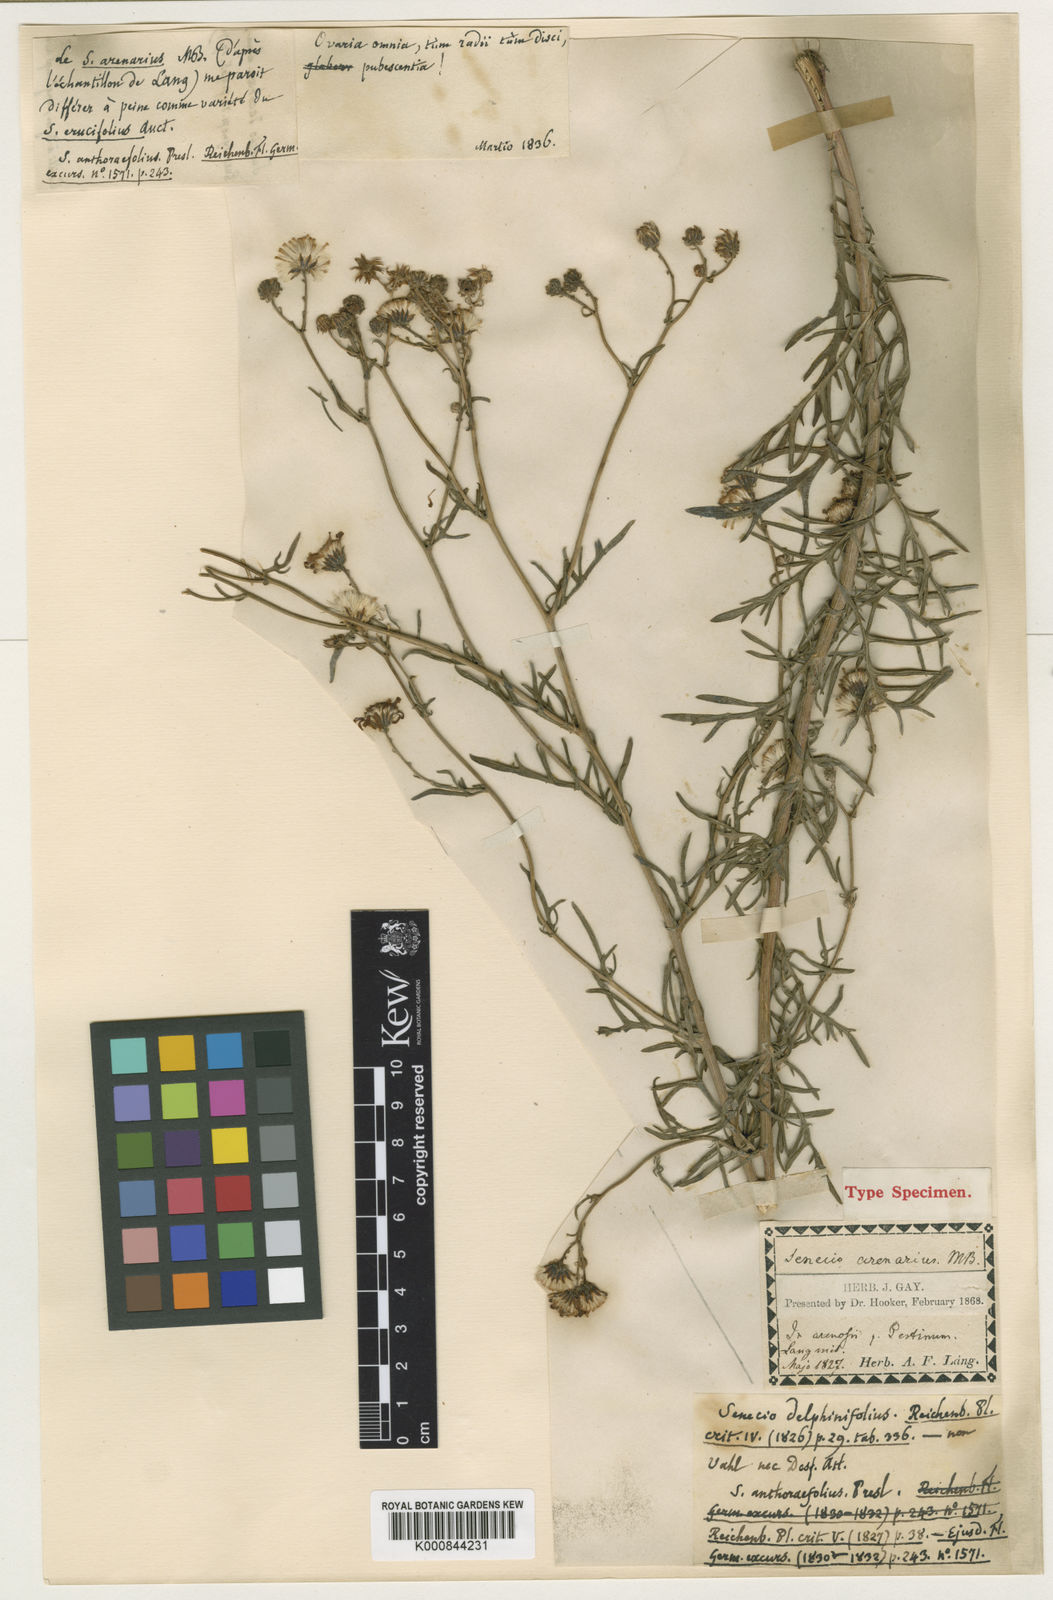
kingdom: Plantae
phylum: Tracheophyta
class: Magnoliopsida
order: Asterales
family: Asteraceae
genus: Jacobaea
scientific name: Jacobaea erucifolia
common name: Hoary ragwort
